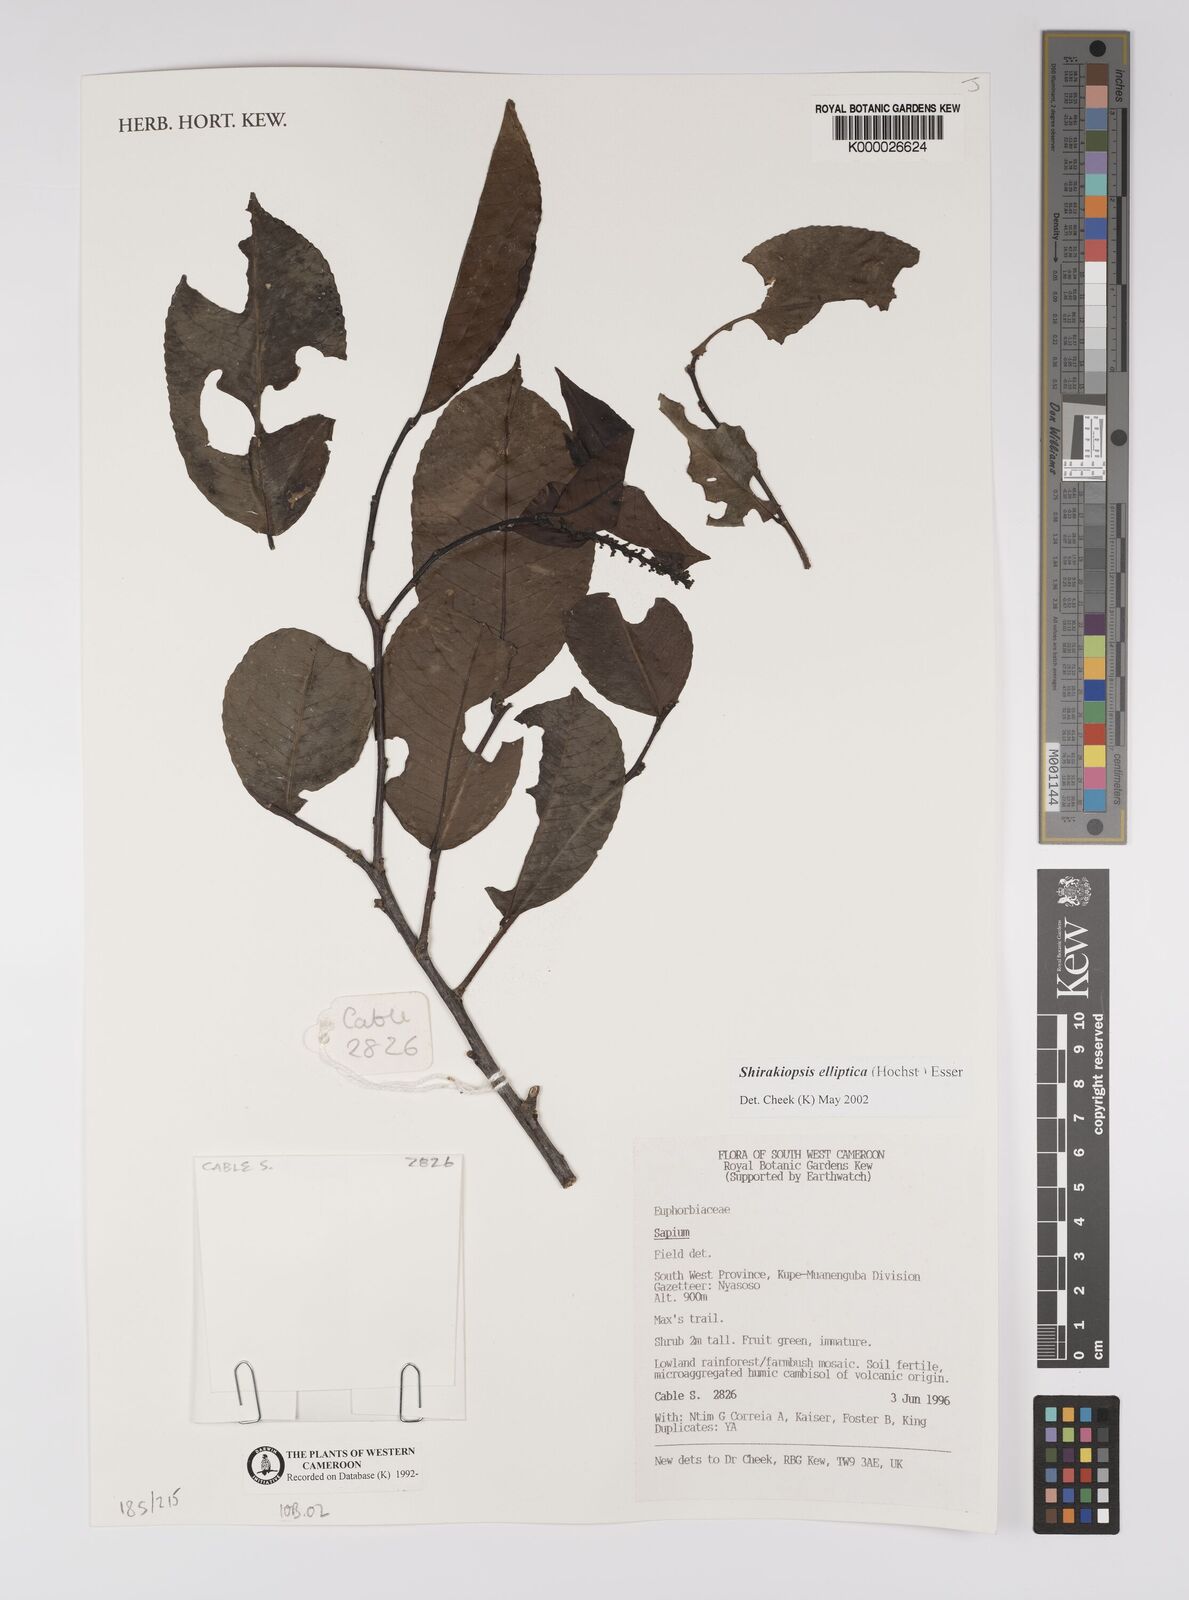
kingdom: Plantae
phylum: Tracheophyta
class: Magnoliopsida
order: Malpighiales
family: Euphorbiaceae
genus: Shirakiopsis
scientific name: Shirakiopsis elliptica
